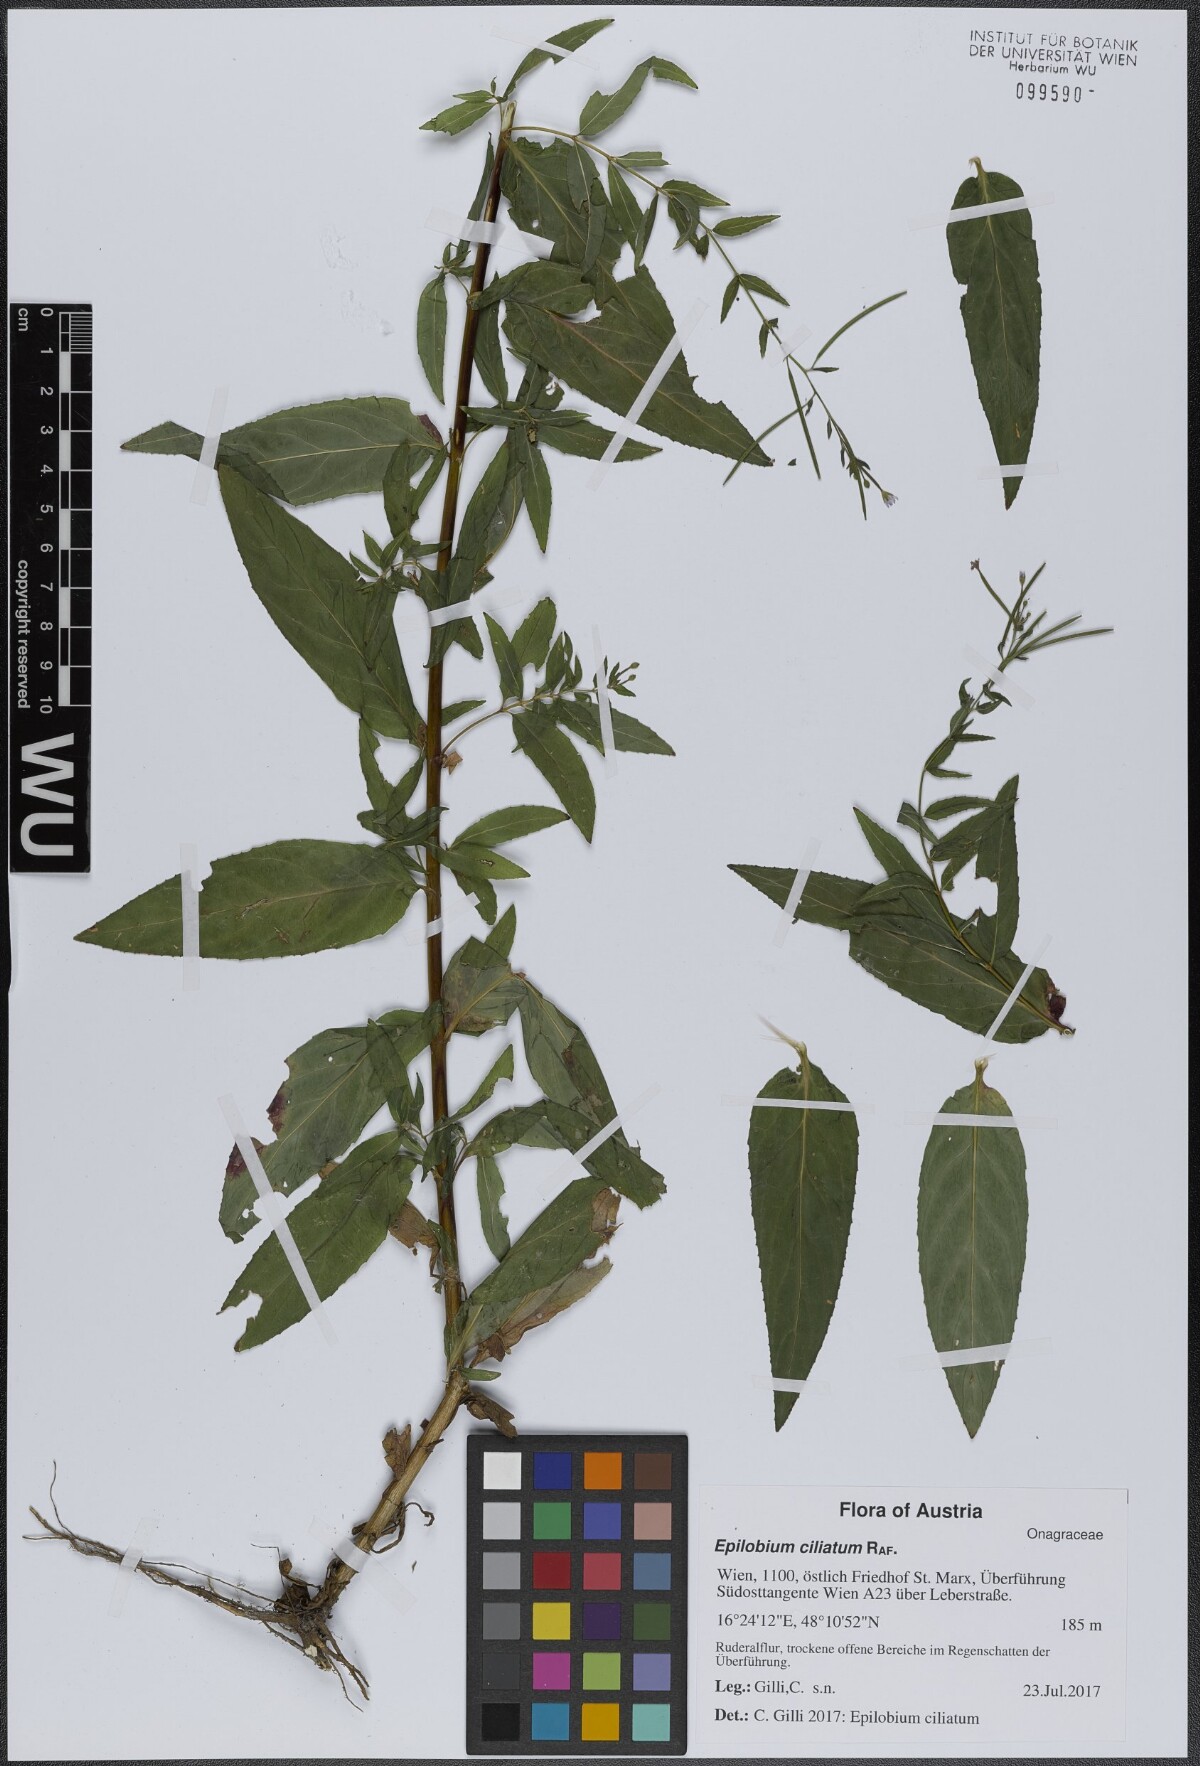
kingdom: Plantae
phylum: Tracheophyta
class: Magnoliopsida
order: Myrtales
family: Onagraceae
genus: Epilobium
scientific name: Epilobium ciliatum
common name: American willowherb
